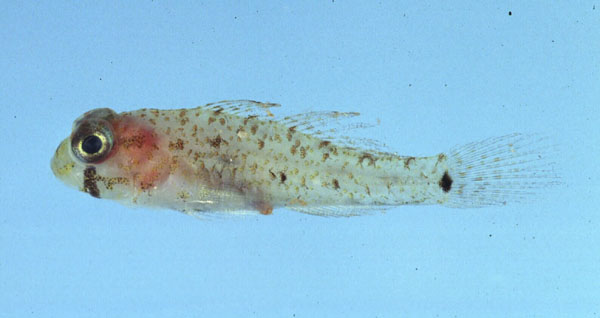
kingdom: Animalia
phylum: Chordata
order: Perciformes
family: Gobiidae
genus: Gnatholepis
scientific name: Gnatholepis
